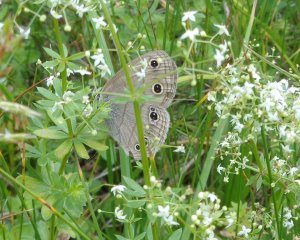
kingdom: Animalia
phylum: Arthropoda
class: Insecta
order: Lepidoptera
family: Nymphalidae
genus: Euptychia
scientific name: Euptychia cymela
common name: Little Wood Satyr
